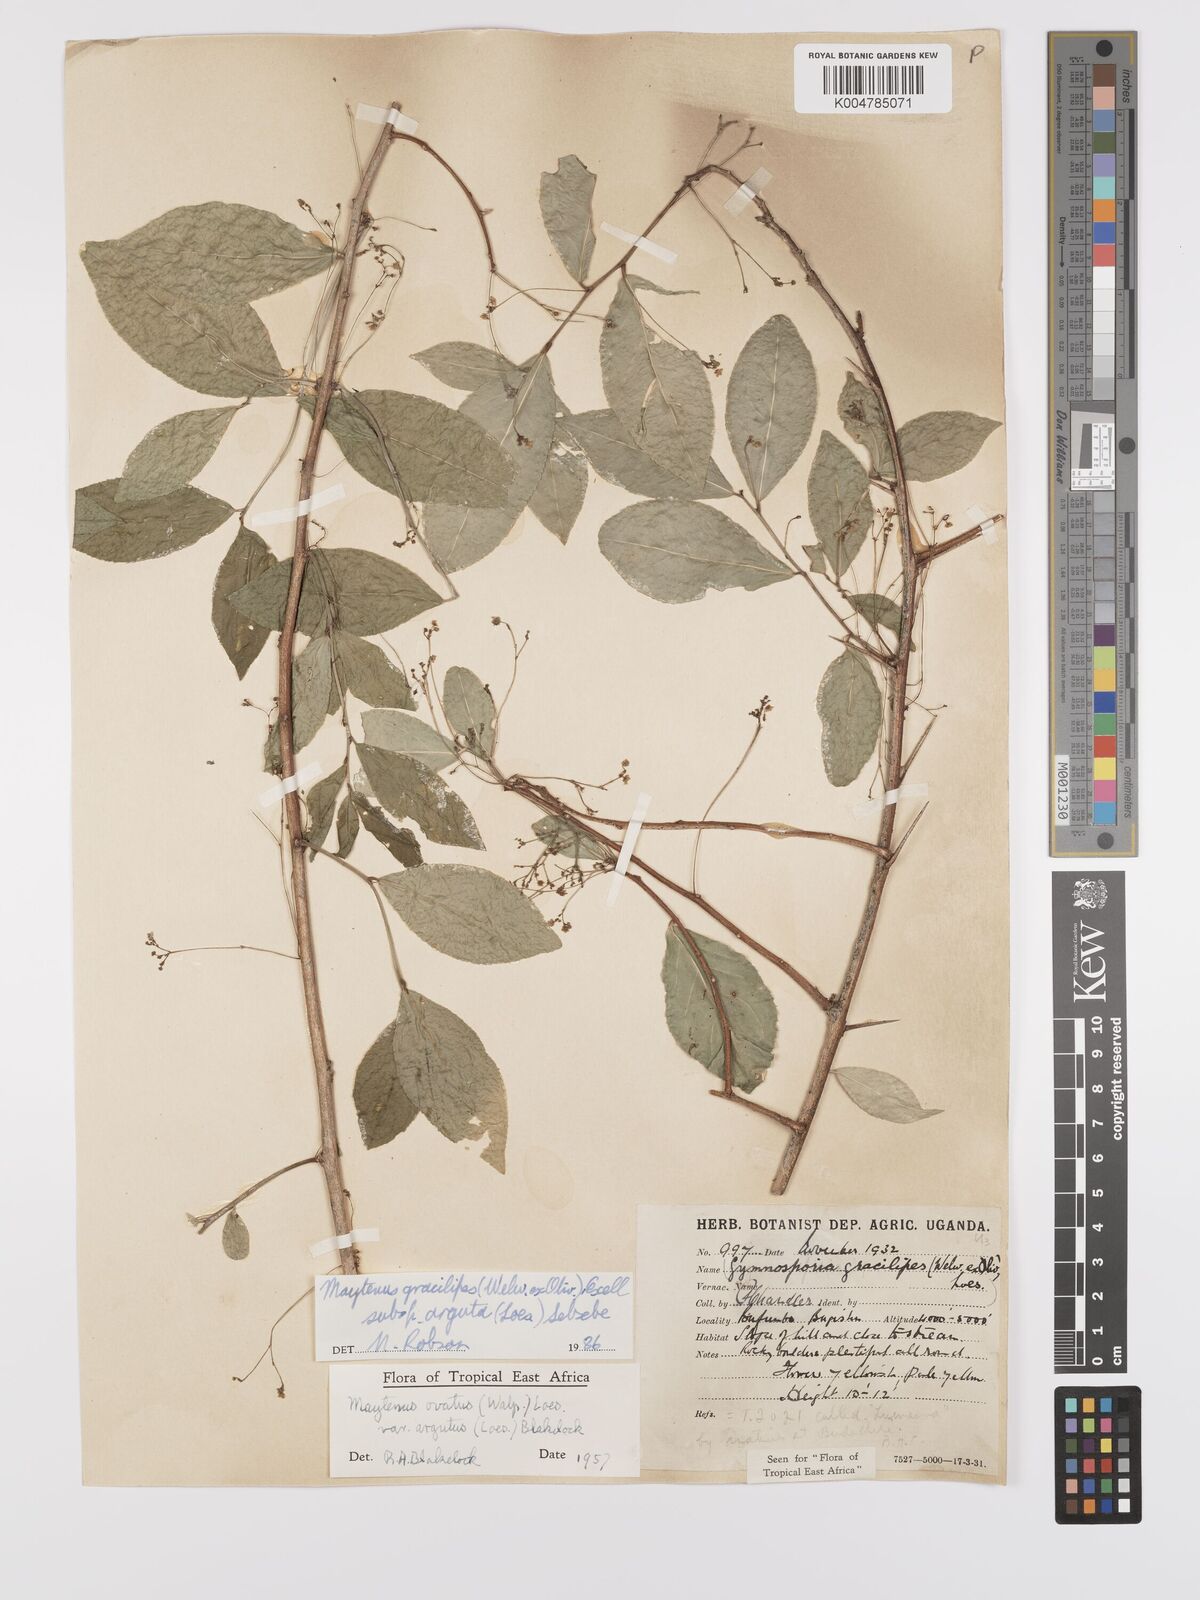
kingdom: Plantae
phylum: Tracheophyta
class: Magnoliopsida
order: Celastrales
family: Celastraceae
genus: Gymnosporia
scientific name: Gymnosporia gracilipes
